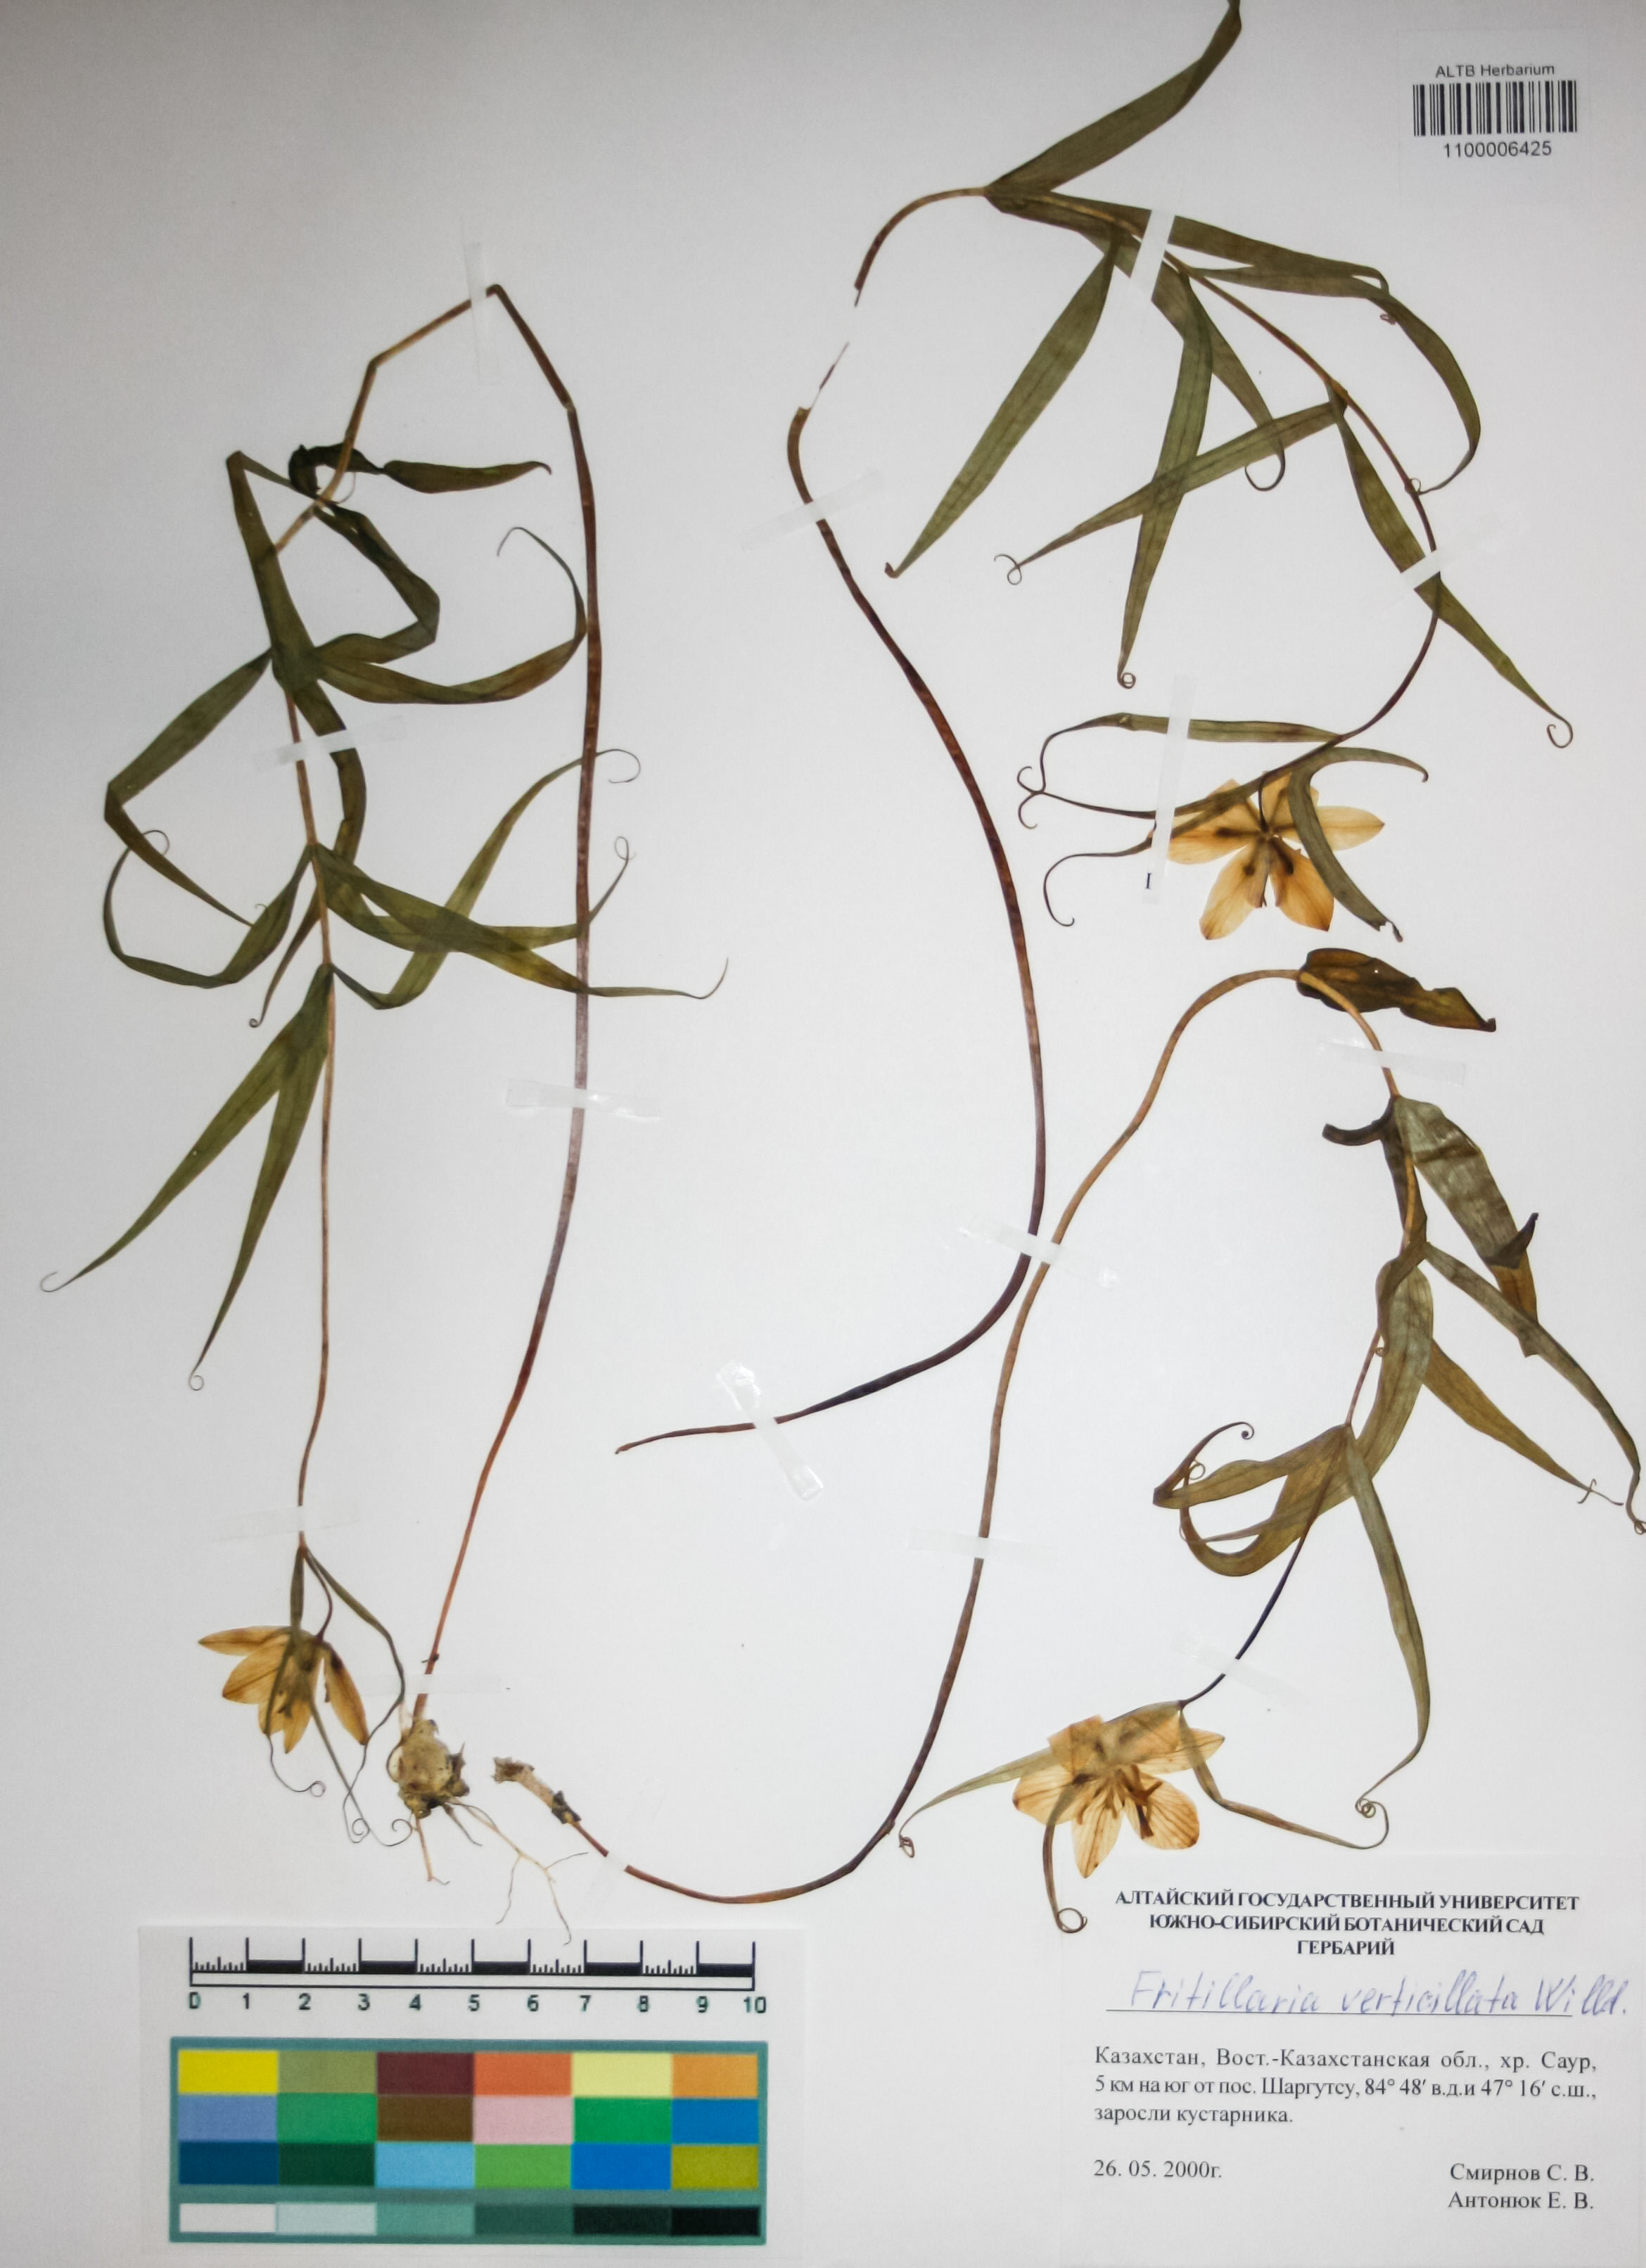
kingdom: Plantae
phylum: Tracheophyta
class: Liliopsida
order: Liliales
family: Liliaceae
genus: Fritillaria
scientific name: Fritillaria verticillata
